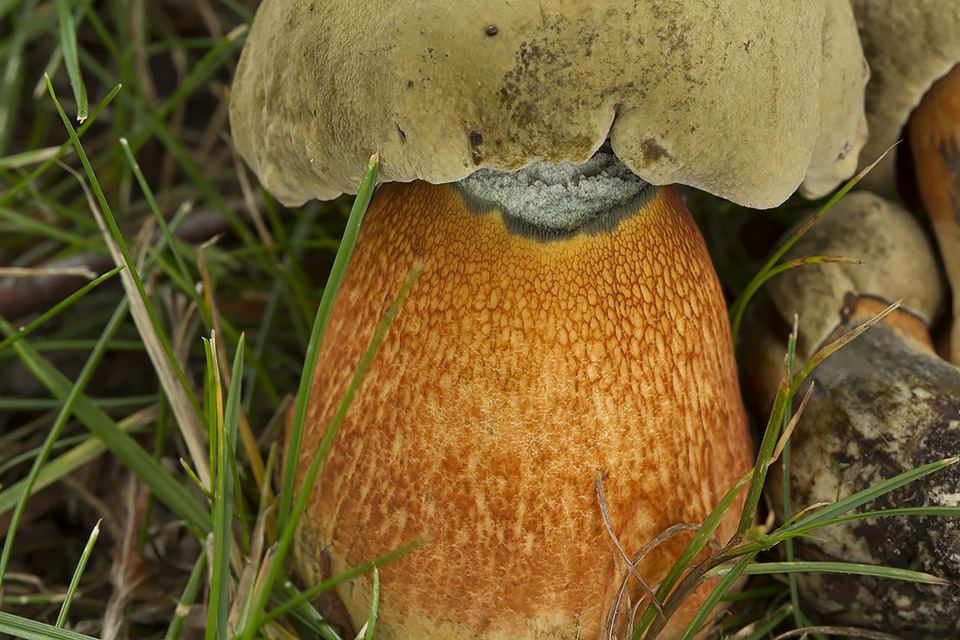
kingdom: Fungi
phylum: Basidiomycota
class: Agaricomycetes
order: Boletales
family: Boletaceae
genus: Suillellus
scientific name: Suillellus luridus
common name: netstokket indigorørhat
